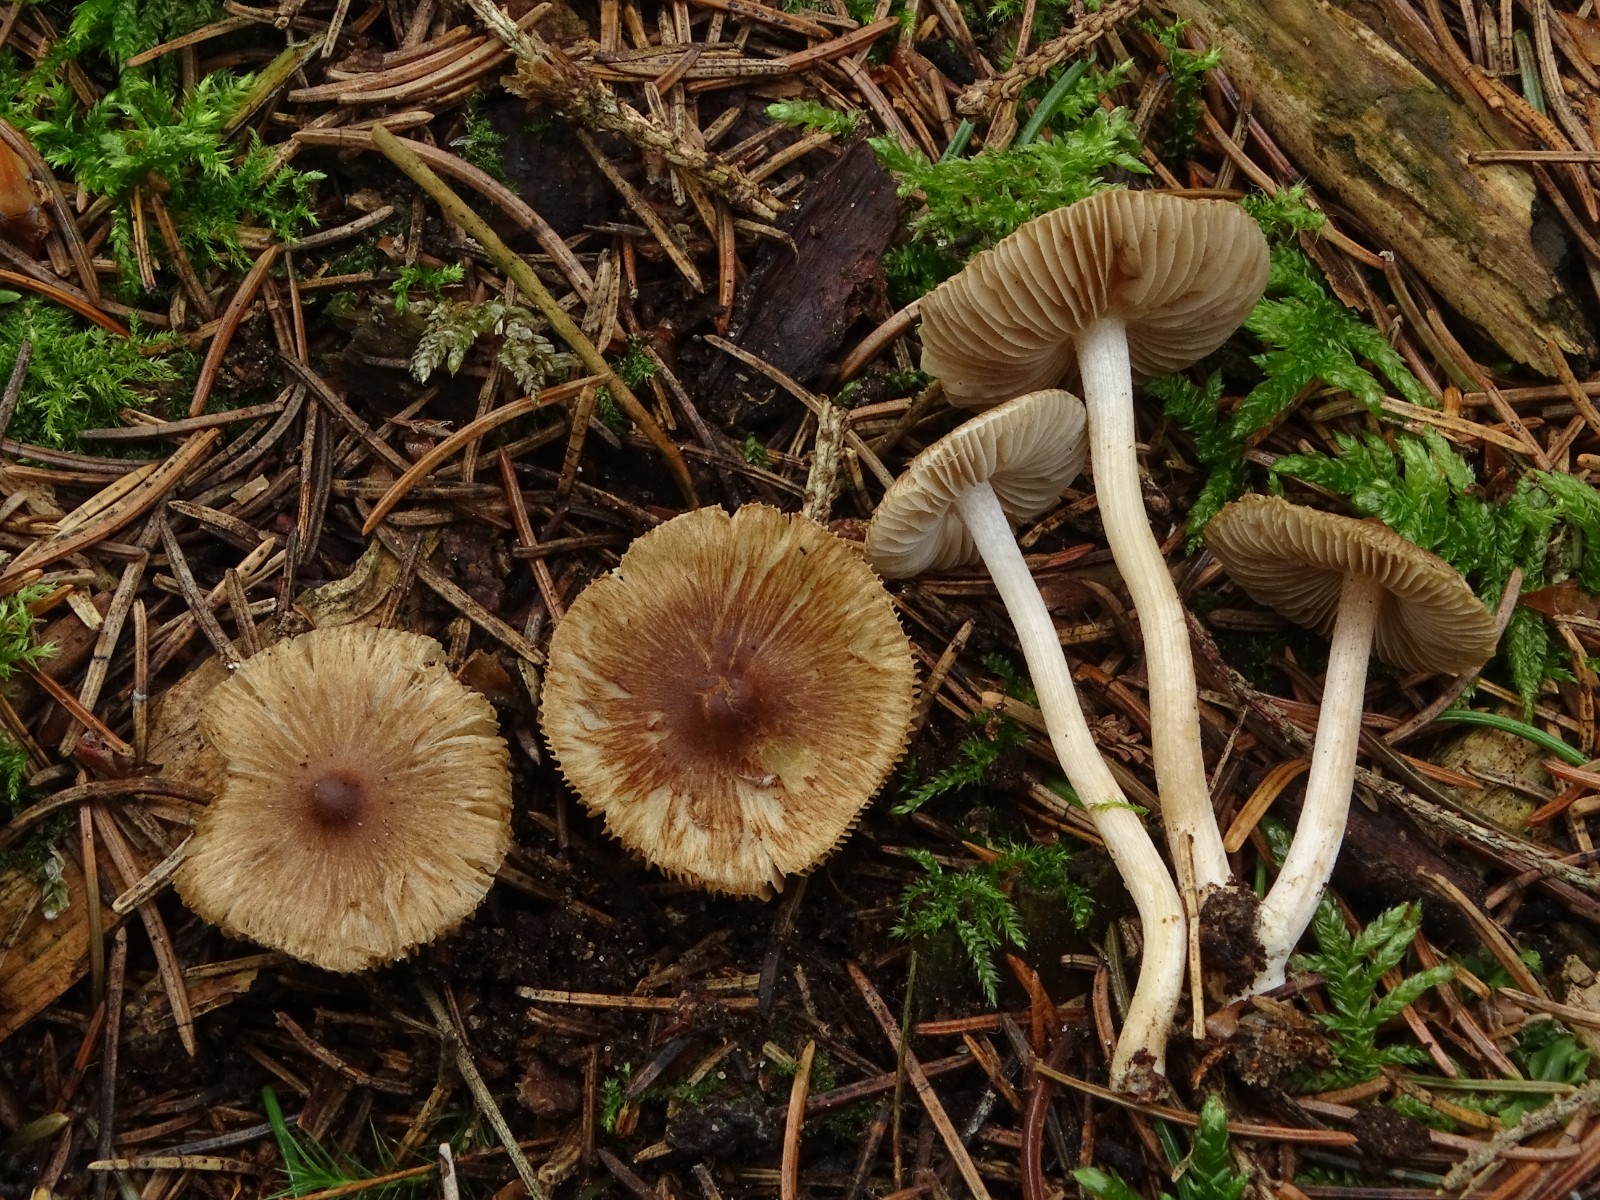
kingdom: Fungi
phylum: Basidiomycota
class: Agaricomycetes
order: Agaricales
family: Inocybaceae
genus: Inocybe
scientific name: Inocybe
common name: trævlhat
